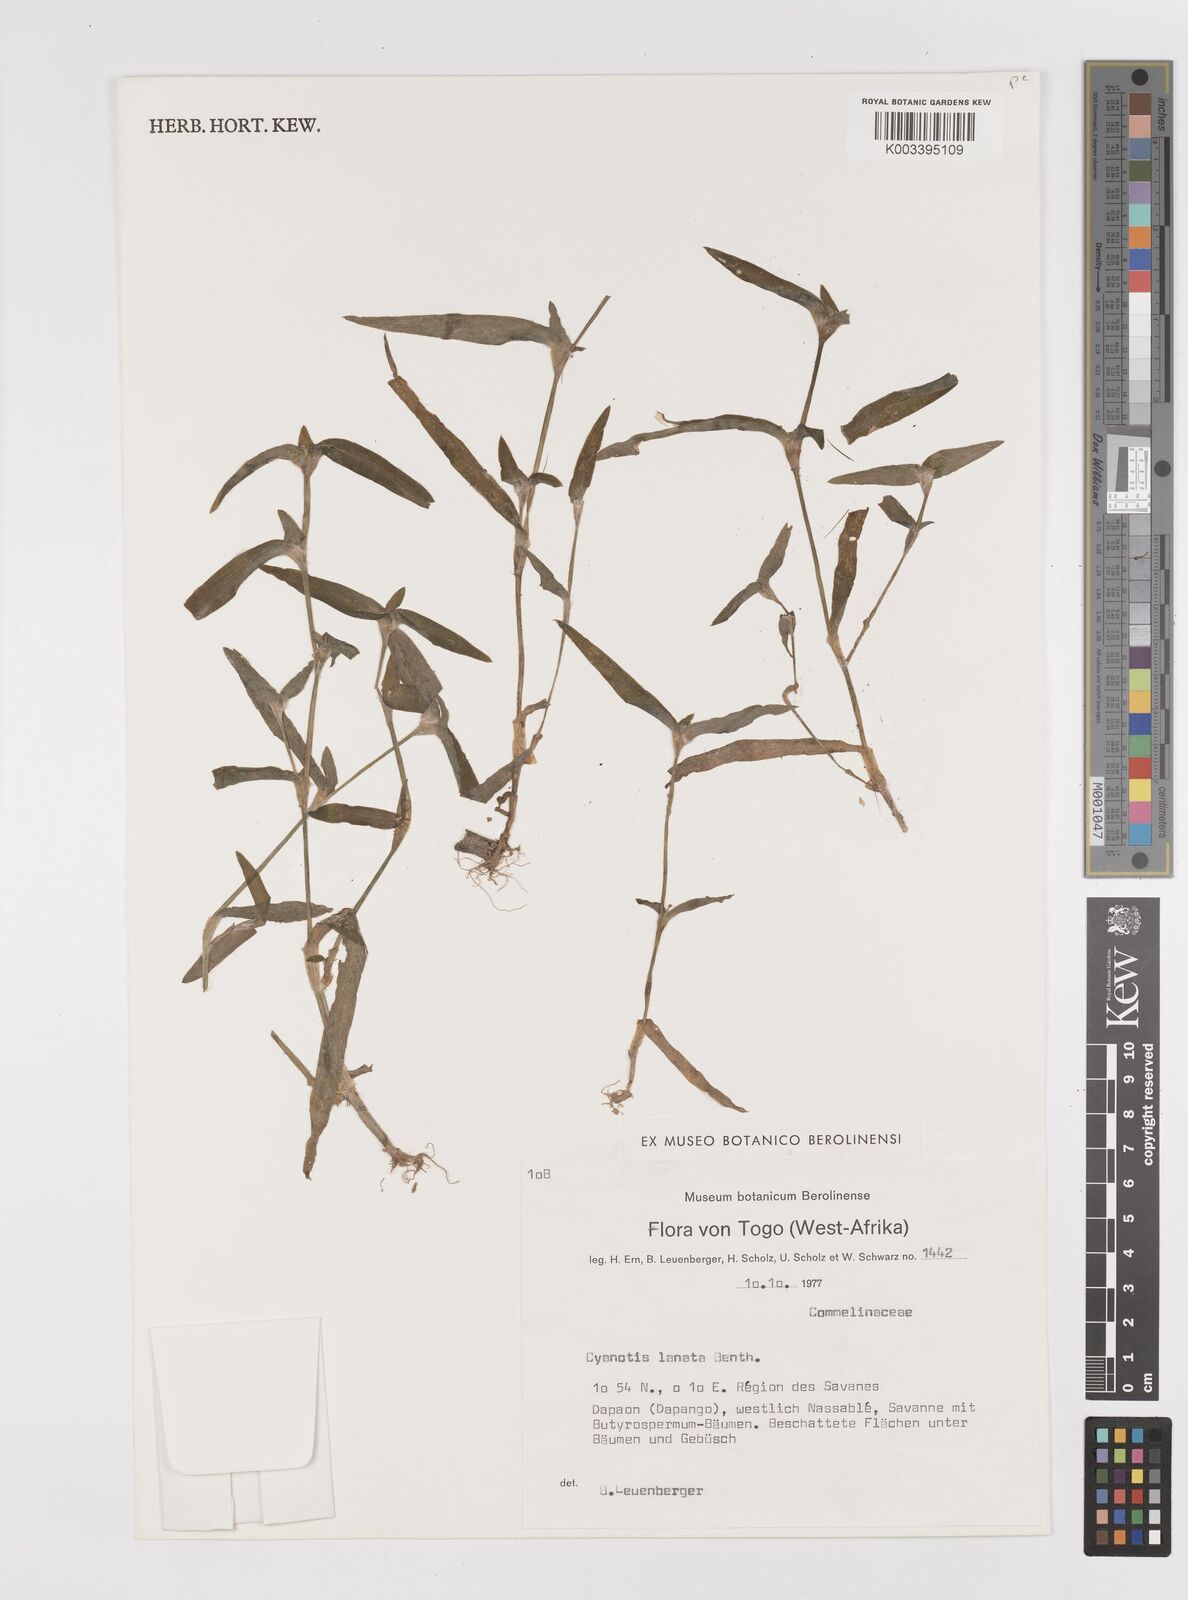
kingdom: Plantae
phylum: Tracheophyta
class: Liliopsida
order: Commelinales
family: Commelinaceae
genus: Cyanotis
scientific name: Cyanotis lanata
